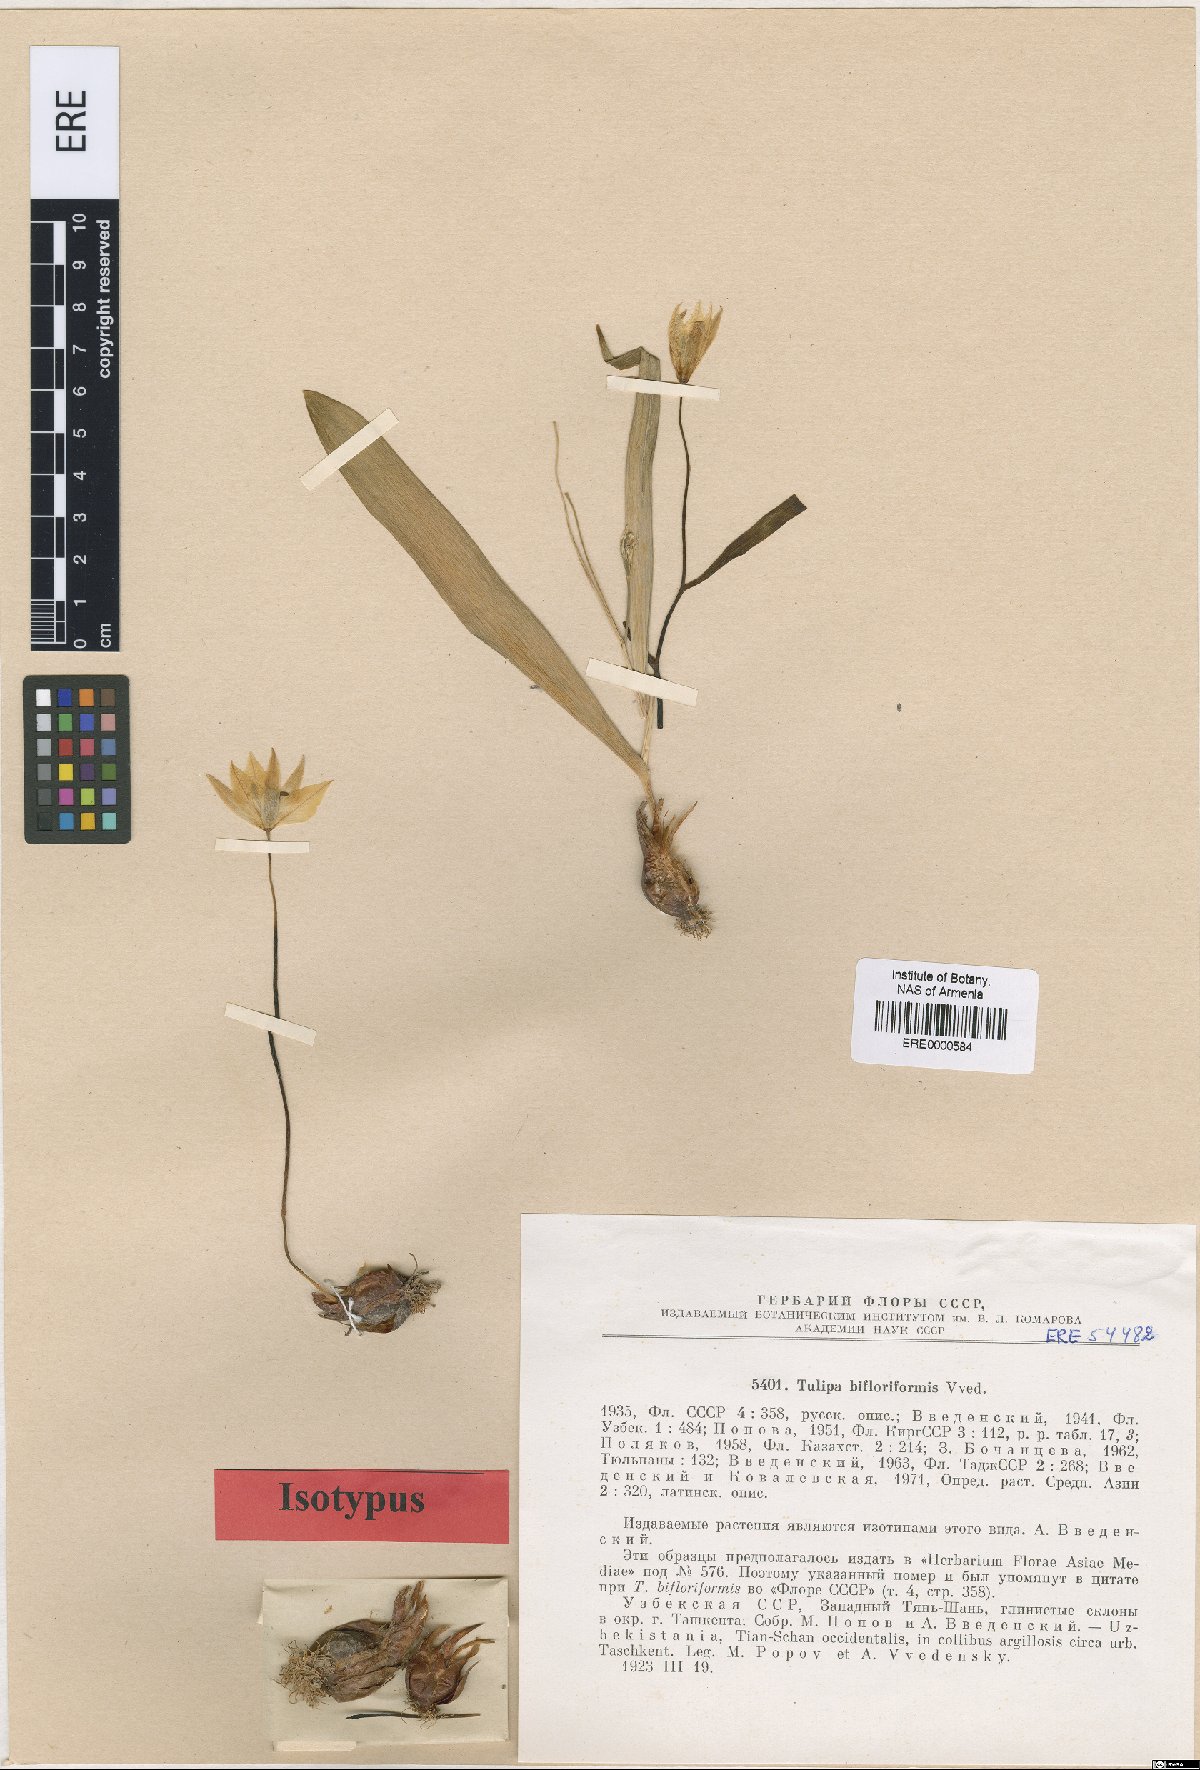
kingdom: Plantae
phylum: Tracheophyta
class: Liliopsida
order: Liliales
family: Liliaceae
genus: Tulipa
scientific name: Tulipa bifloriformis
